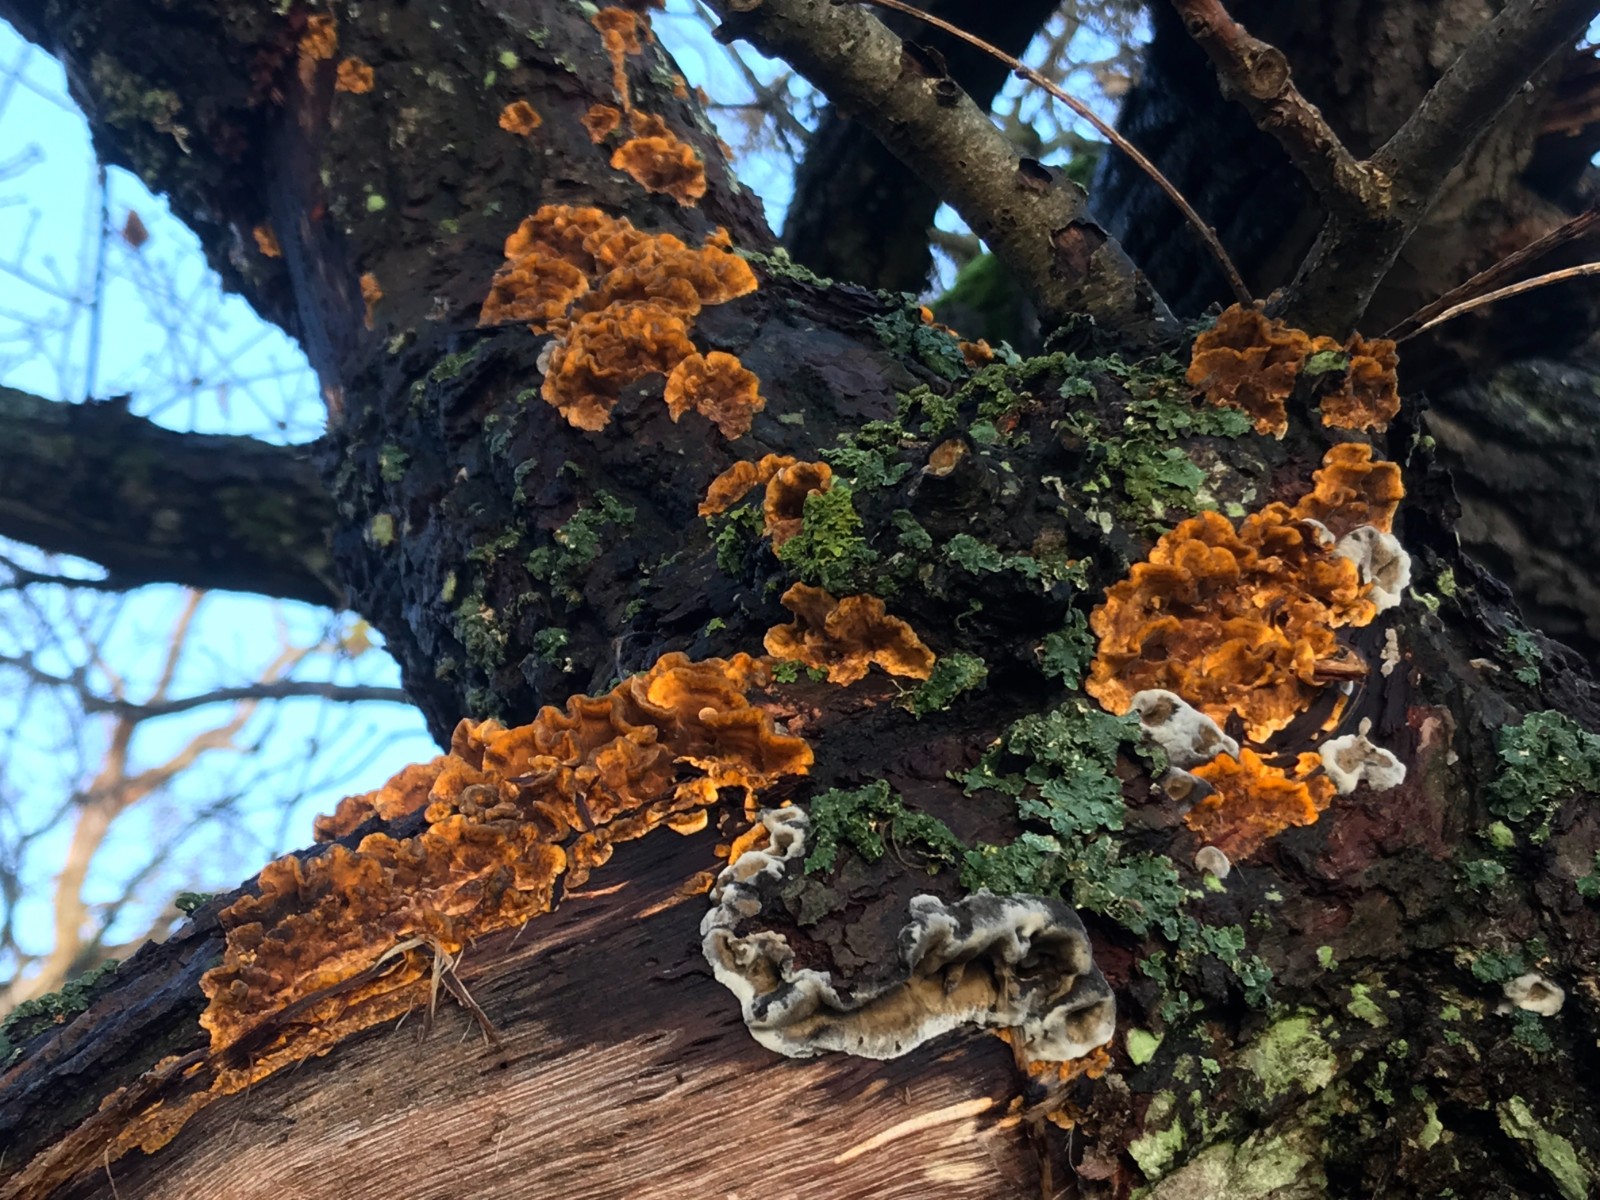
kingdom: Fungi
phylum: Basidiomycota
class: Agaricomycetes
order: Russulales
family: Stereaceae
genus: Stereum
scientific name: Stereum hirsutum
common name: håret lædersvamp
